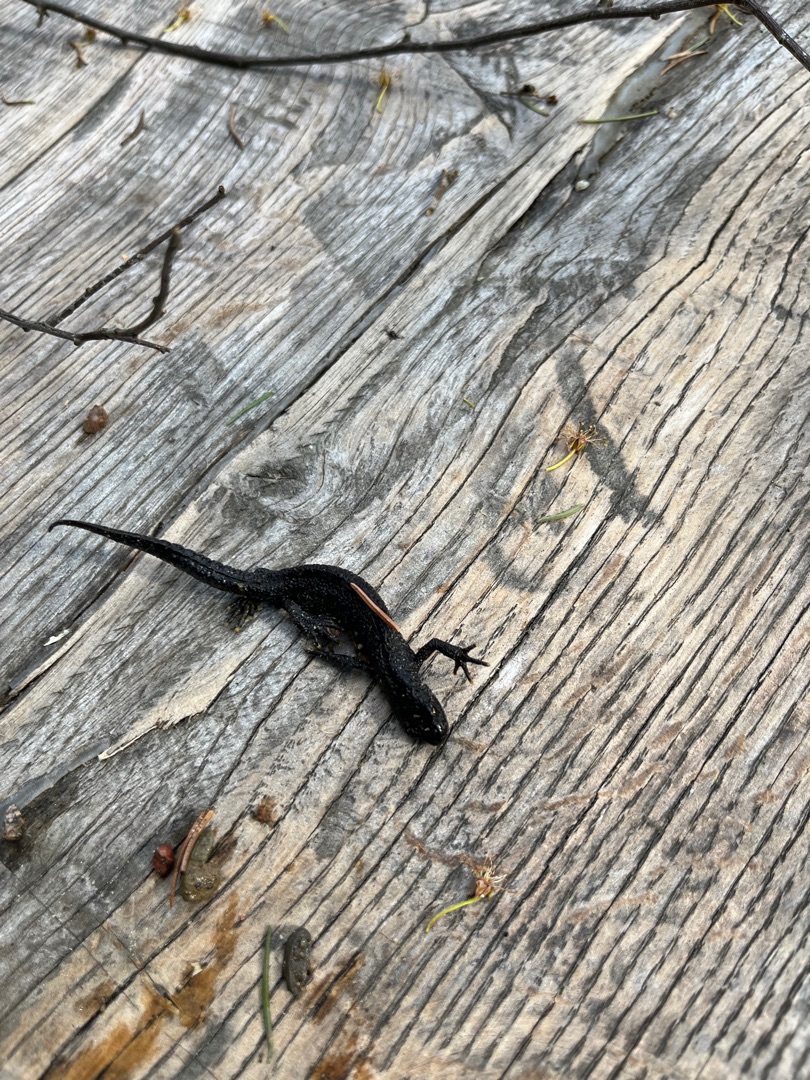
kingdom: Animalia
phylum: Chordata
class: Amphibia
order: Caudata
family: Salamandridae
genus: Triturus
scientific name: Triturus cristatus
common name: Stor vandsalamander
